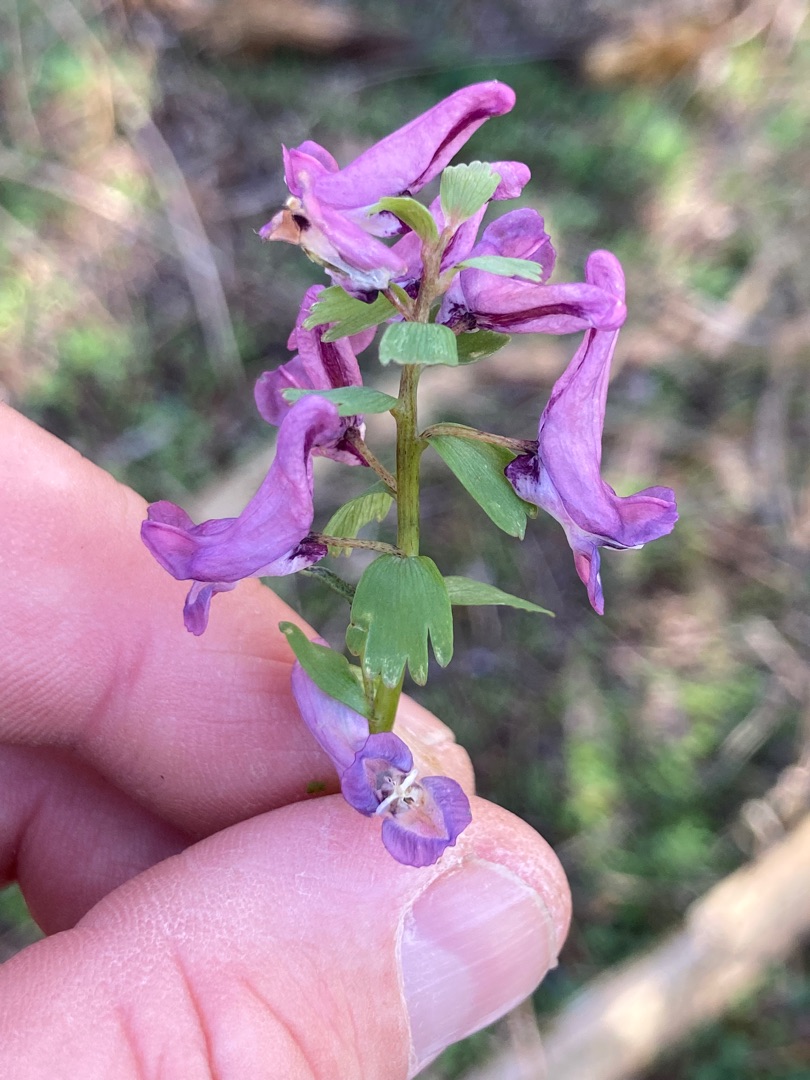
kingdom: Plantae
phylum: Tracheophyta
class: Magnoliopsida
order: Ranunculales
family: Papaveraceae
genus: Corydalis
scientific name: Corydalis solida
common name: Langstilket lærkespore
